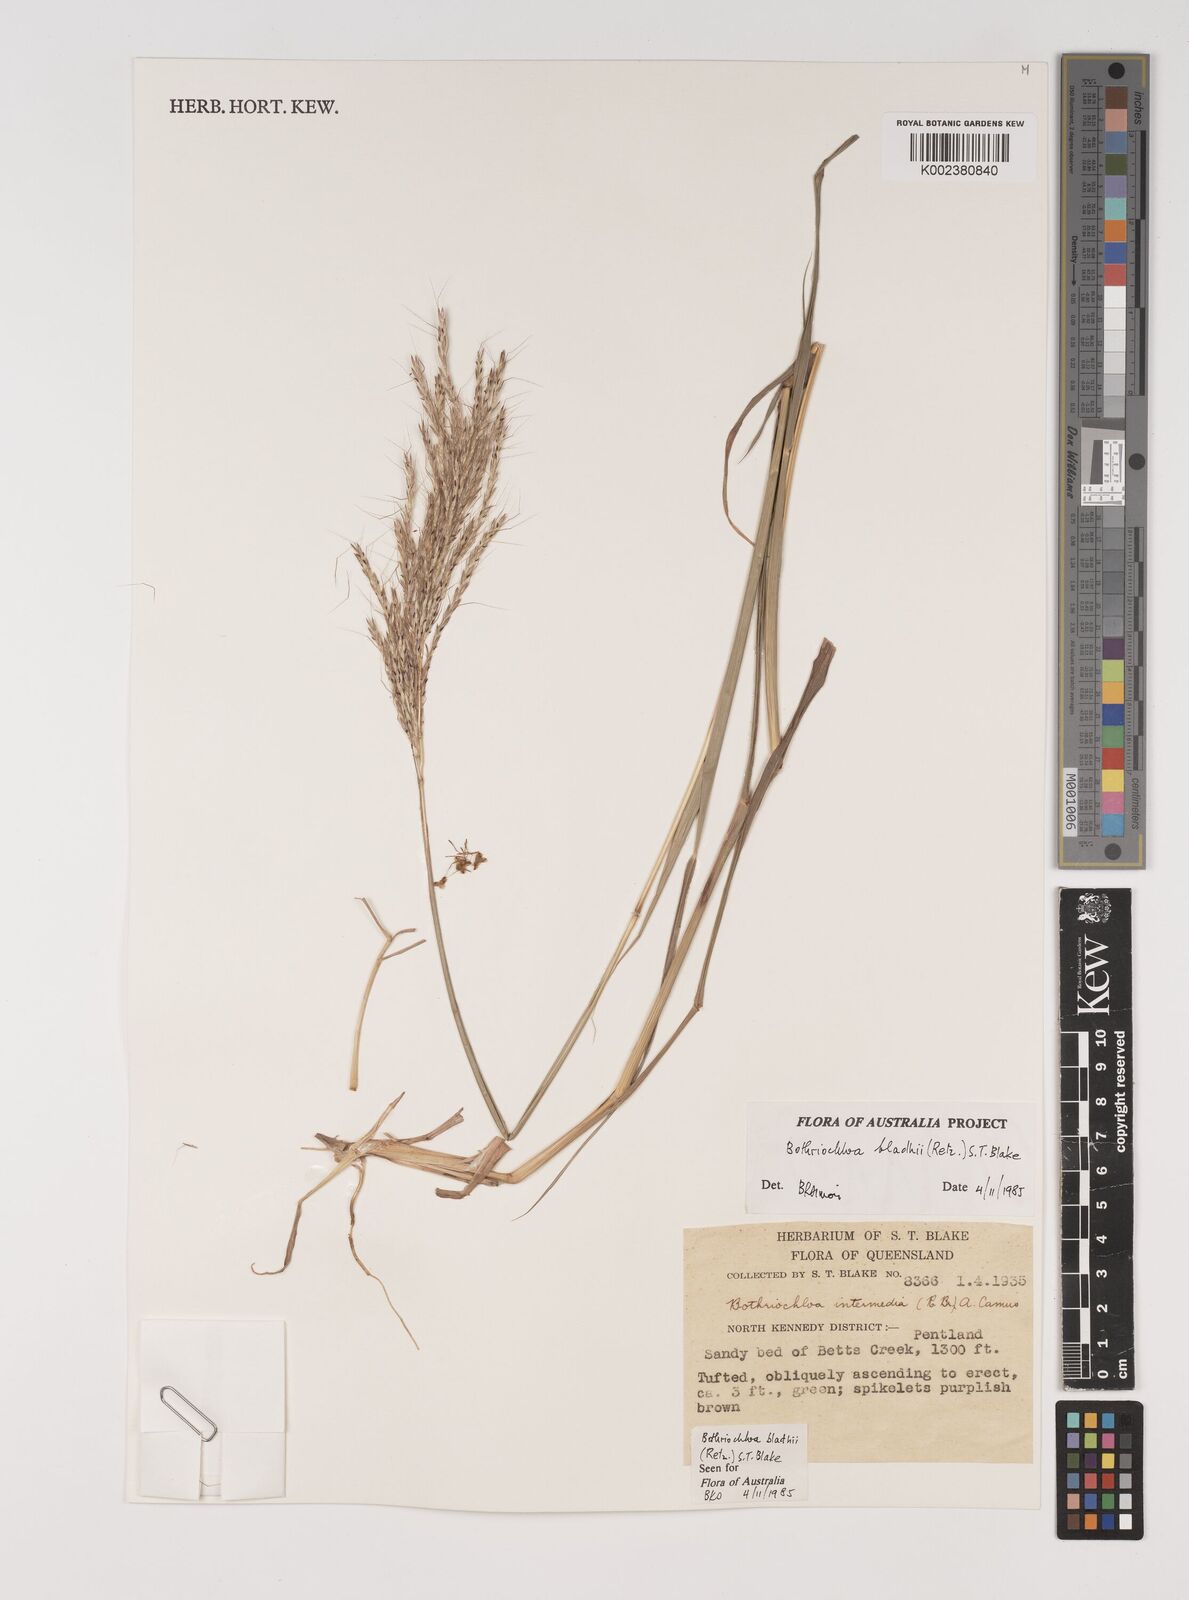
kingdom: Plantae
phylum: Tracheophyta
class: Liliopsida
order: Poales
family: Poaceae
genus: Bothriochloa
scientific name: Bothriochloa bladhii
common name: Caucasian bluestem
